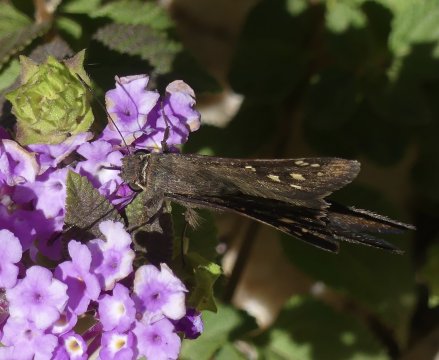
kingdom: Animalia
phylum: Arthropoda
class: Insecta
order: Lepidoptera
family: Hesperiidae
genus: Urbanus
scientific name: Urbanus dorantes
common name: Dorantes Longtail
